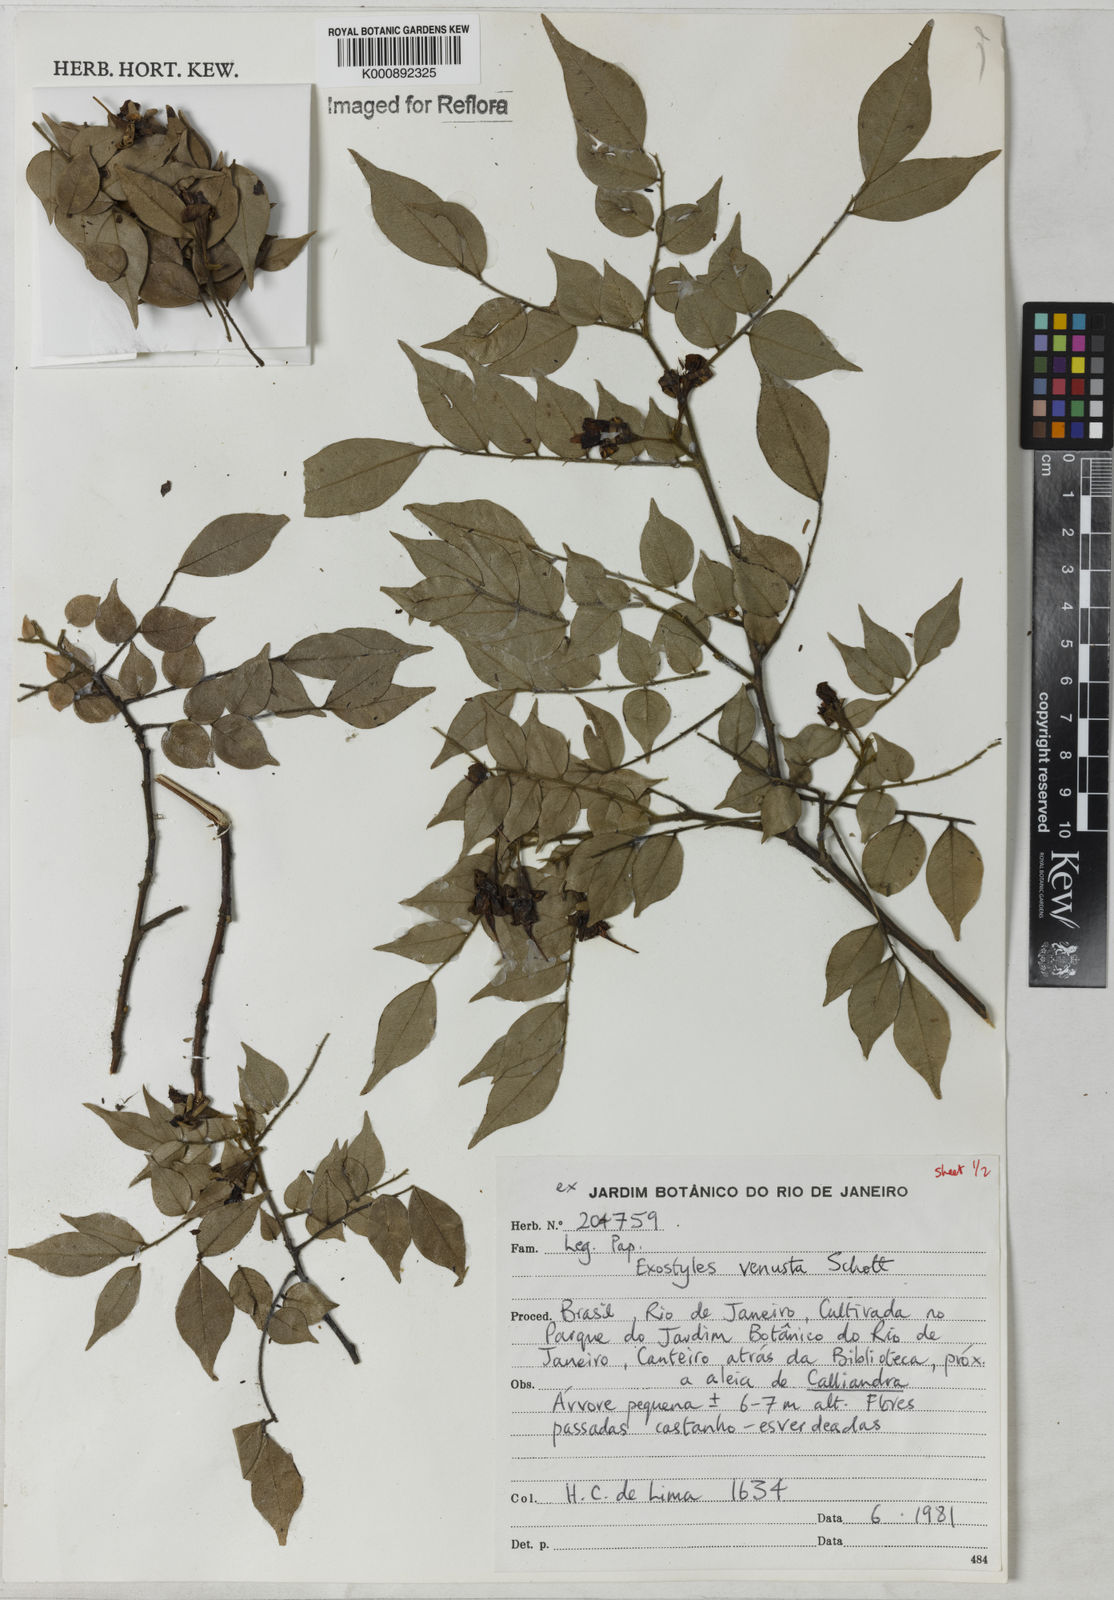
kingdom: Plantae
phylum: Tracheophyta
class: Magnoliopsida
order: Fabales
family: Fabaceae
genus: Exostyles
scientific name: Exostyles venusta
